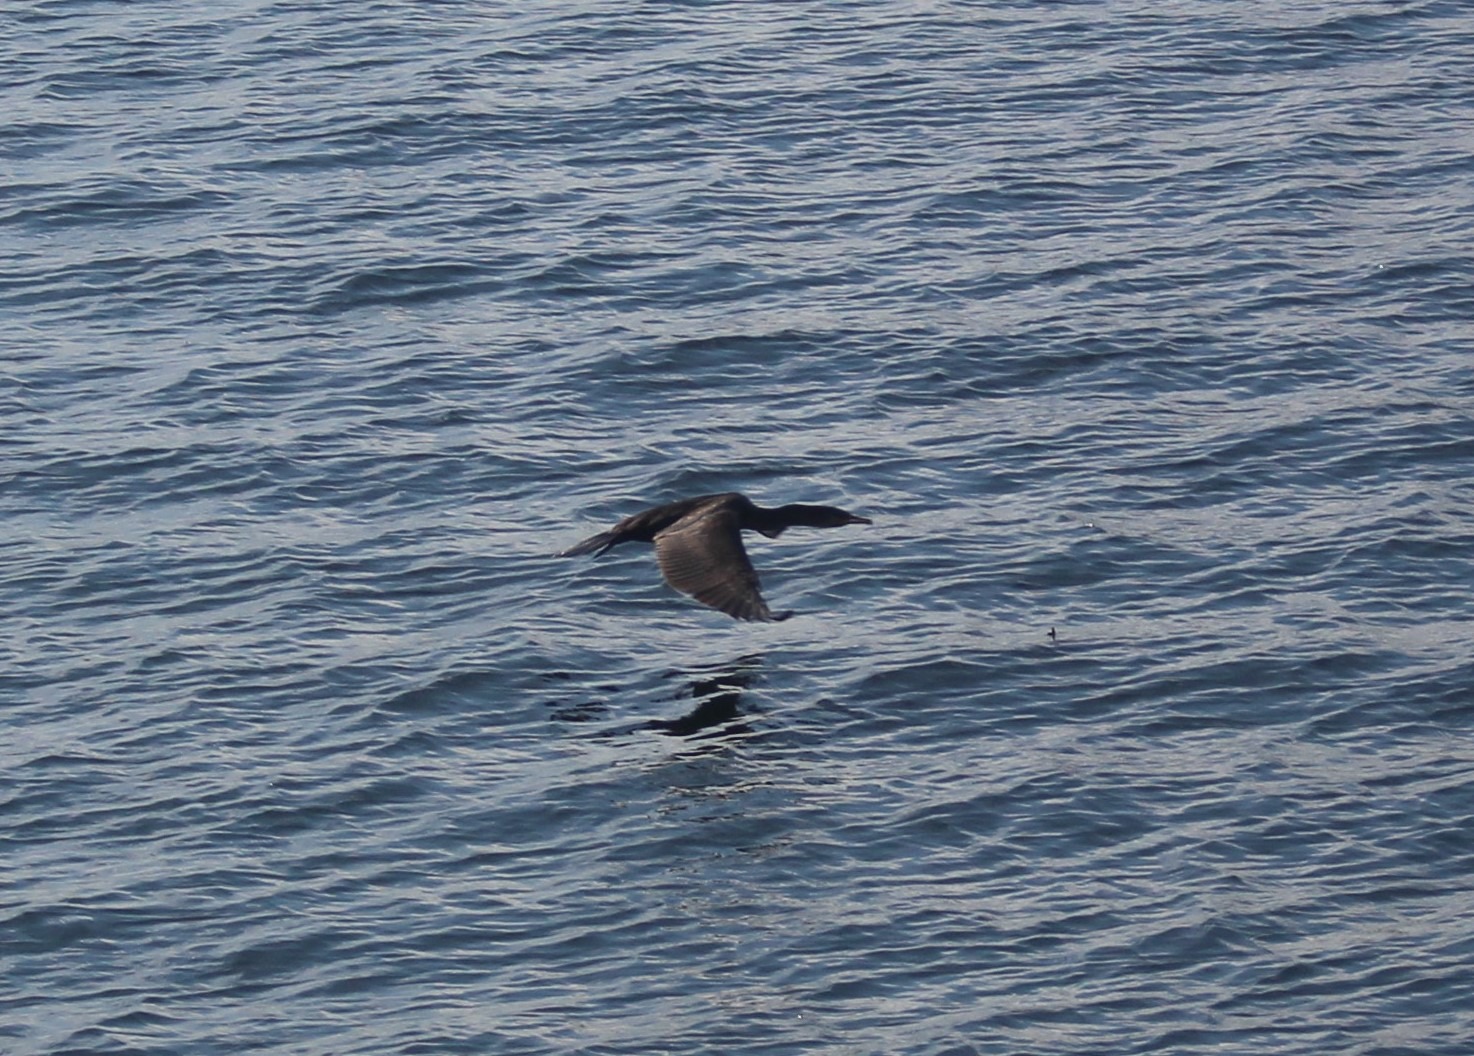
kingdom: Animalia
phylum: Chordata
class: Aves
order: Suliformes
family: Phalacrocoracidae
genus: Phalacrocorax
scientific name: Phalacrocorax carbo
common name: Skarv
